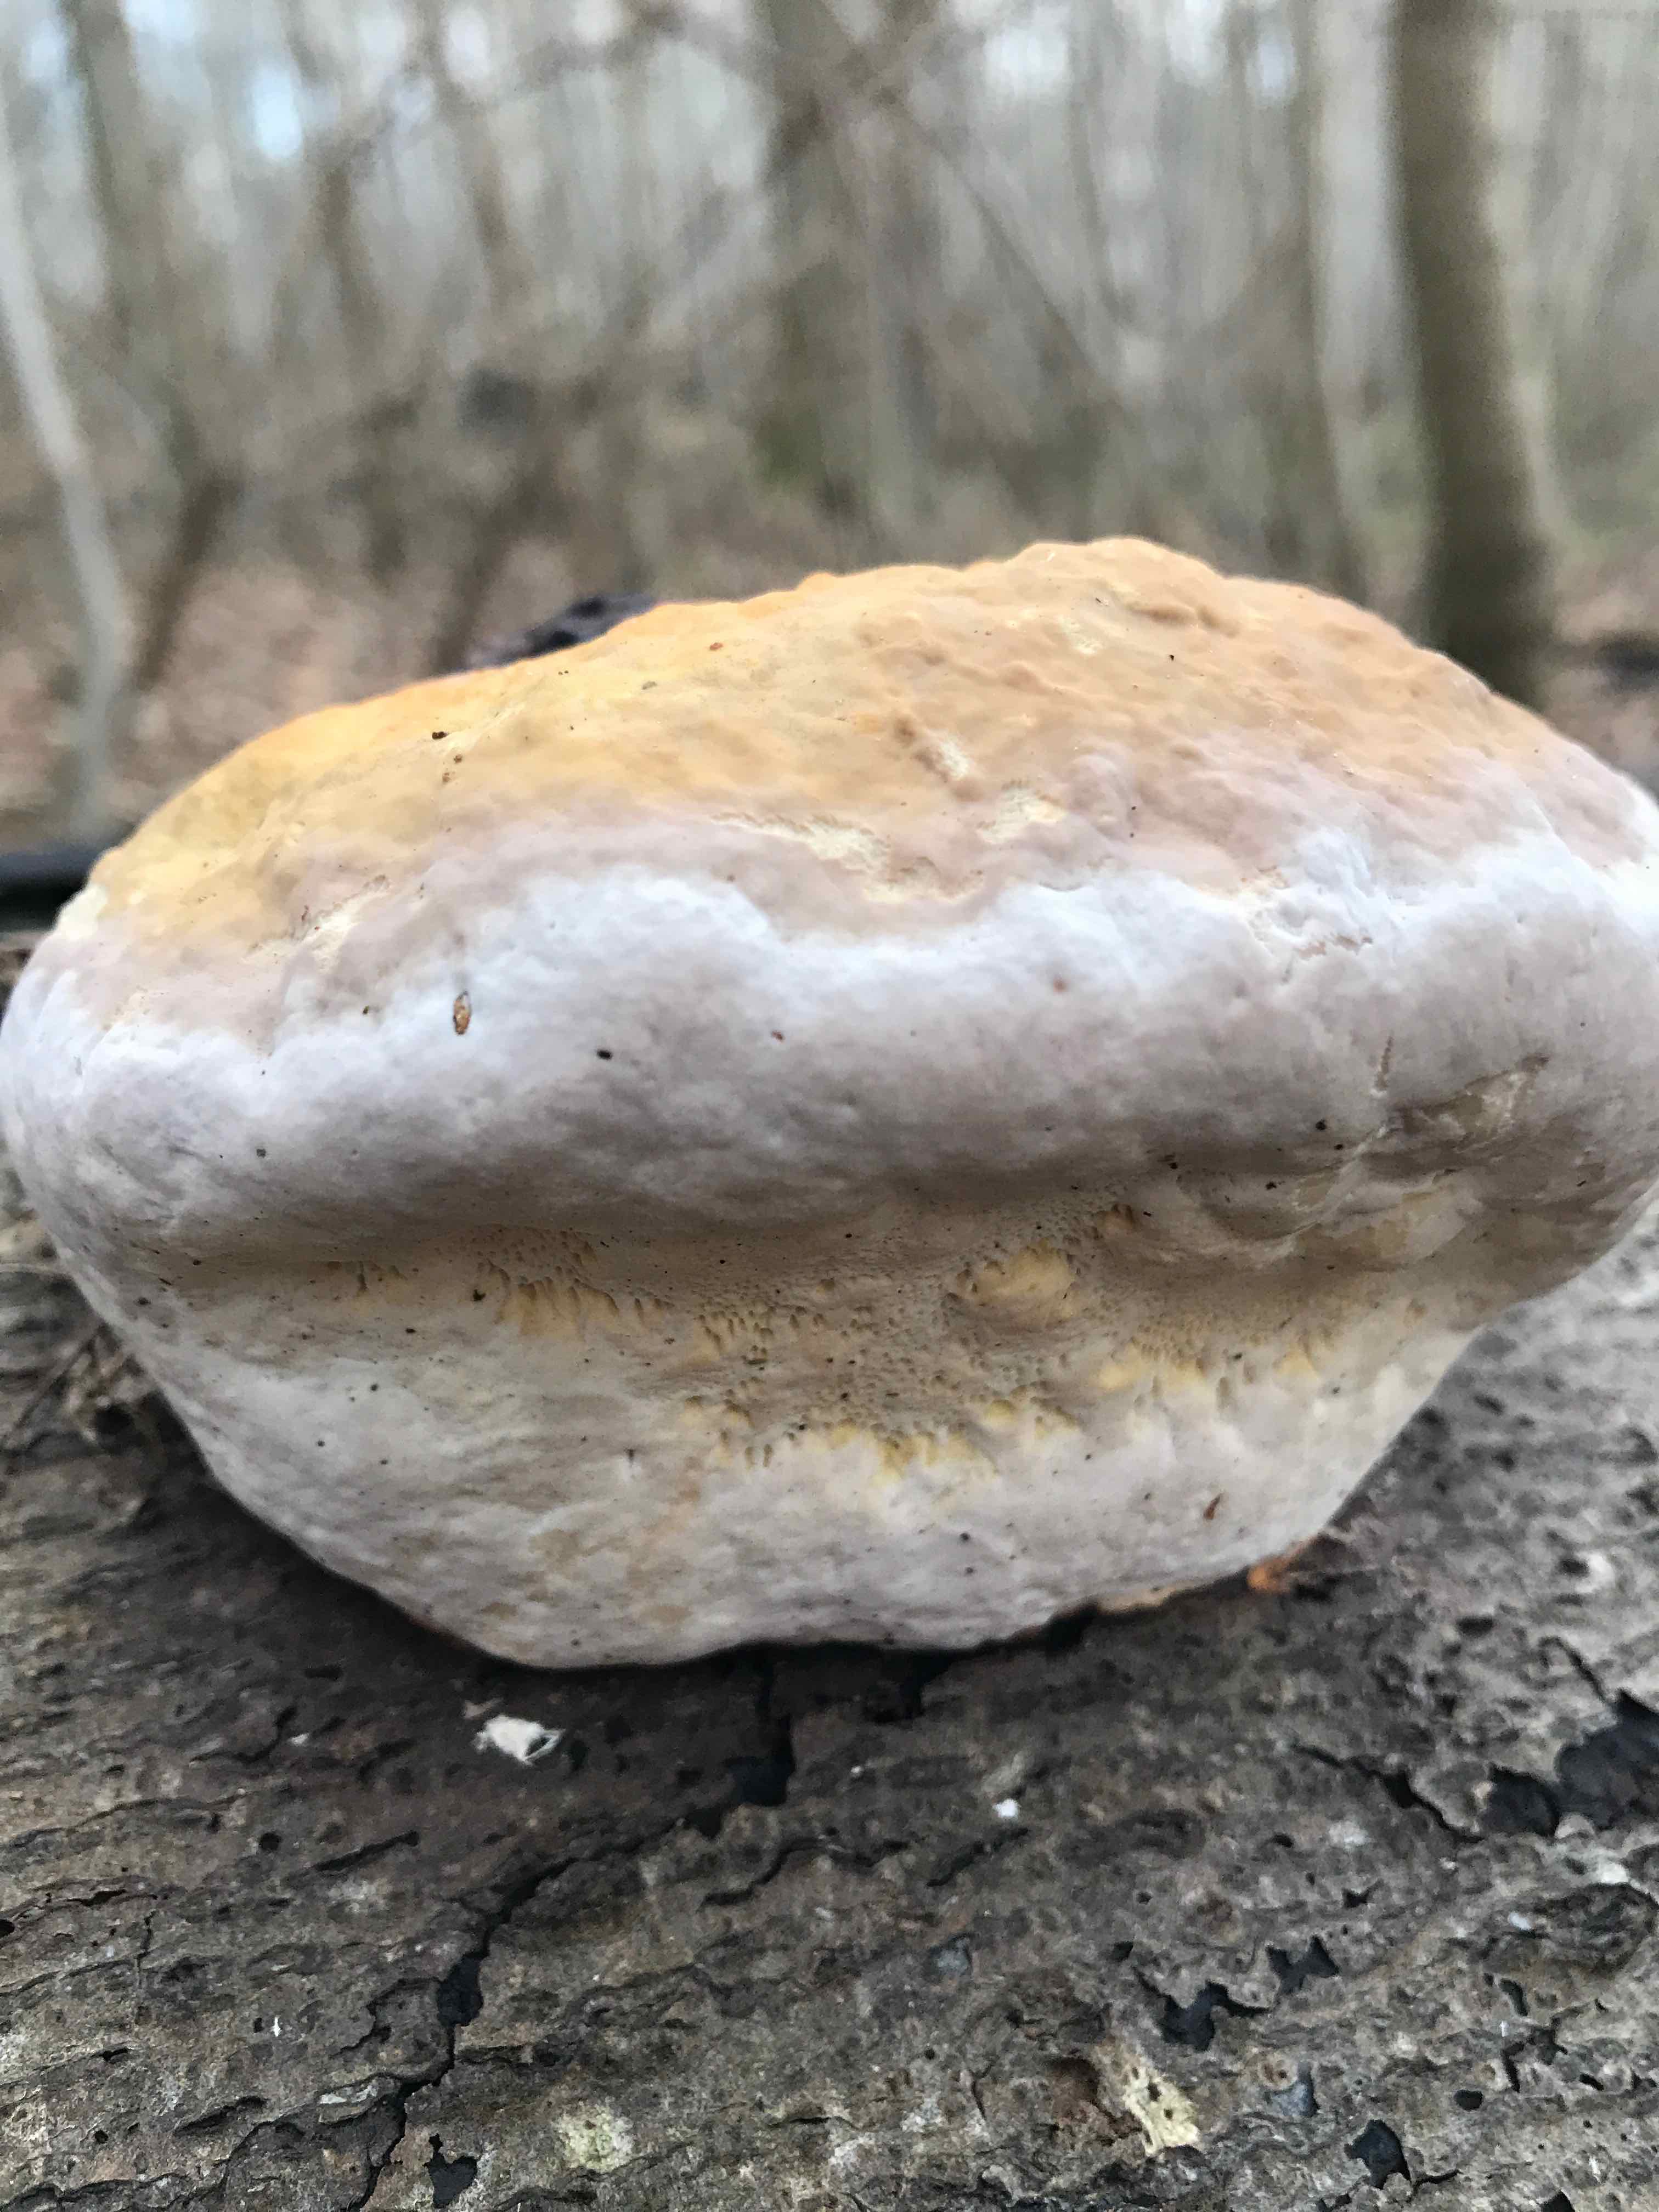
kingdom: Fungi
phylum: Basidiomycota
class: Agaricomycetes
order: Polyporales
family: Fomitopsidaceae
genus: Fomitopsis
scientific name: Fomitopsis pinicola
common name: randbæltet hovporesvamp
